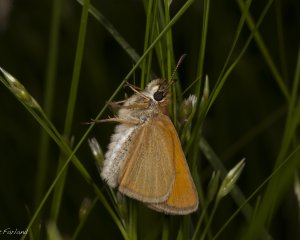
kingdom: Animalia
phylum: Arthropoda
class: Insecta
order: Lepidoptera
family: Hesperiidae
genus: Thymelicus
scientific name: Thymelicus lineola
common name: European Skipper
